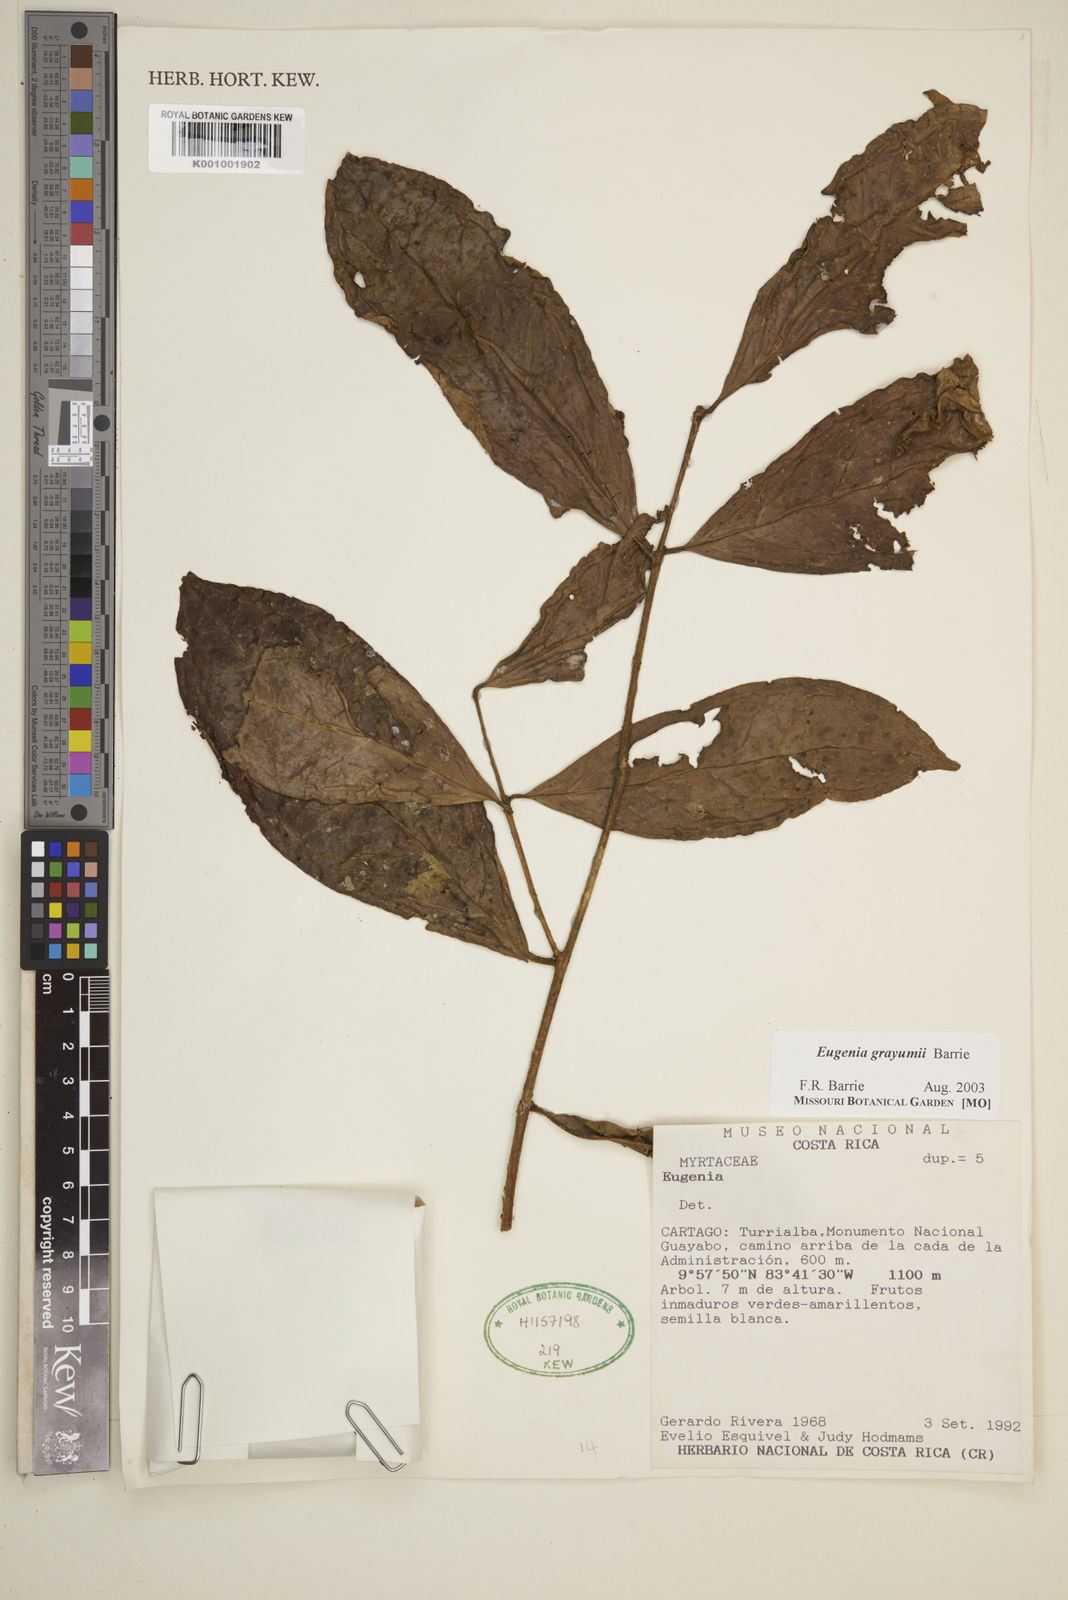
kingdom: Plantae
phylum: Tracheophyta
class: Magnoliopsida
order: Myrtales
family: Myrtaceae
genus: Eugenia
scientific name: Eugenia grayumii
